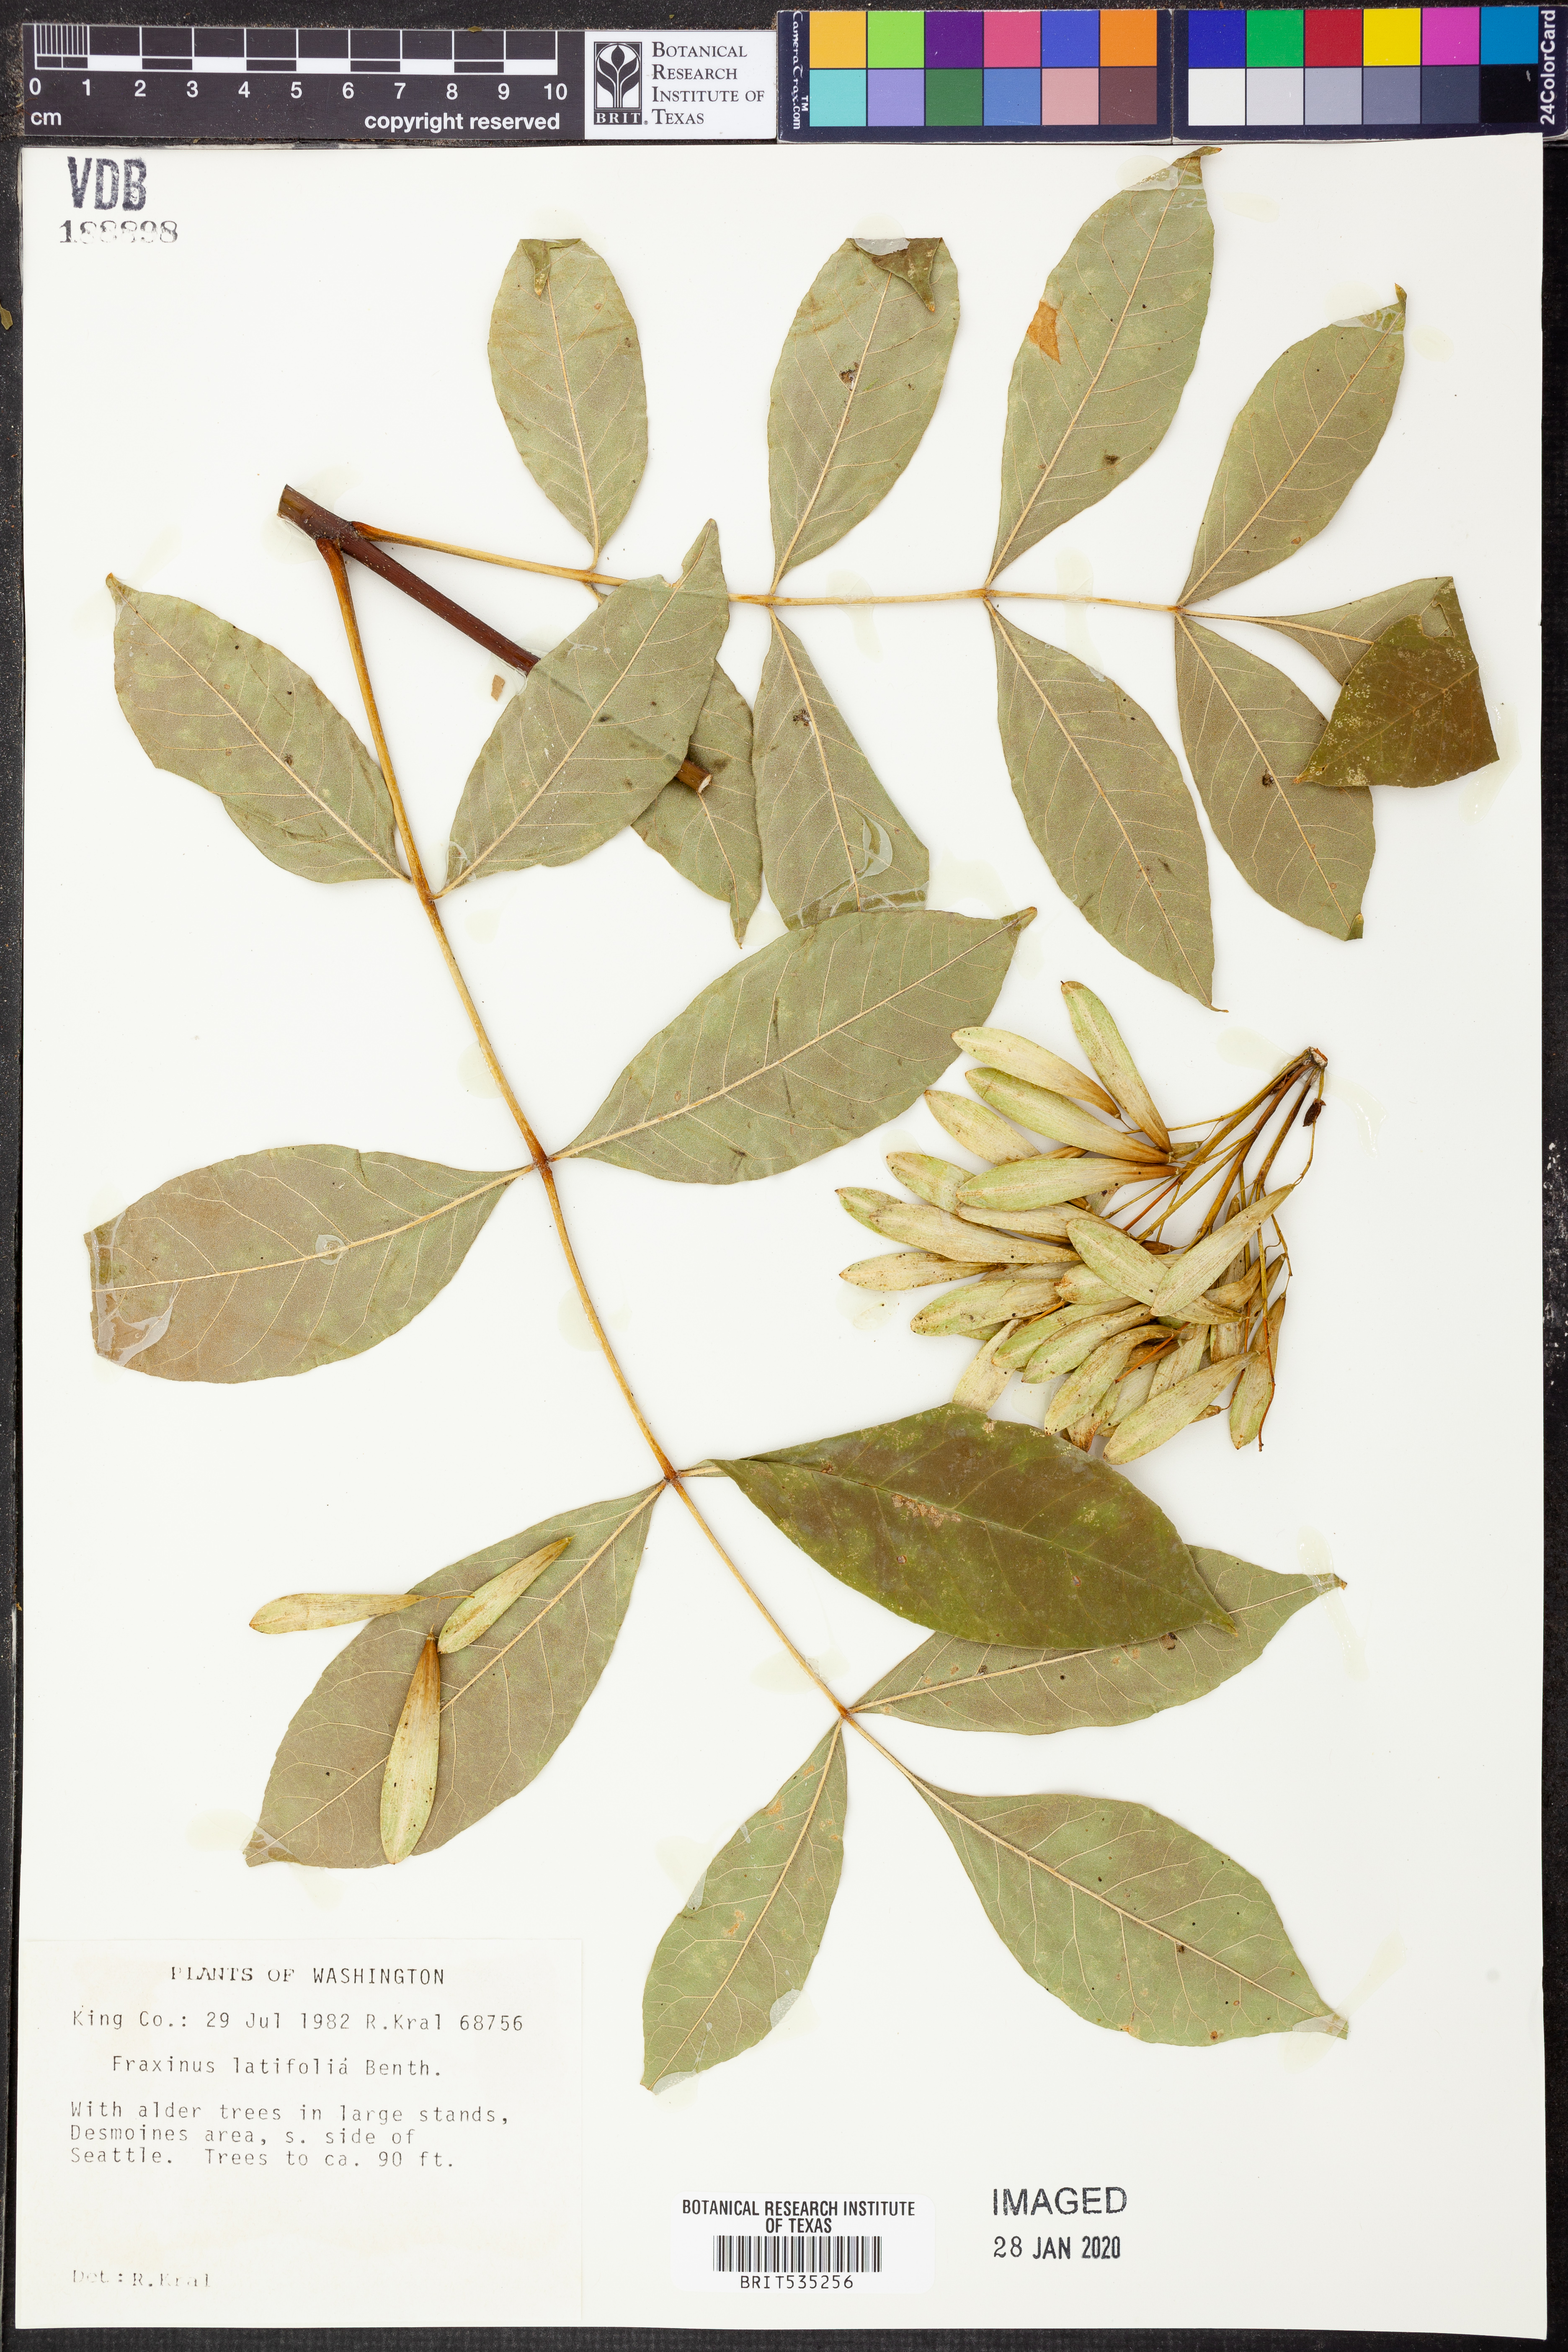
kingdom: Plantae
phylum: Tracheophyta
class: Magnoliopsida
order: Lamiales
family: Oleaceae
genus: Fraxinus
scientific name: Fraxinus latifolia
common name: Oregon ash
